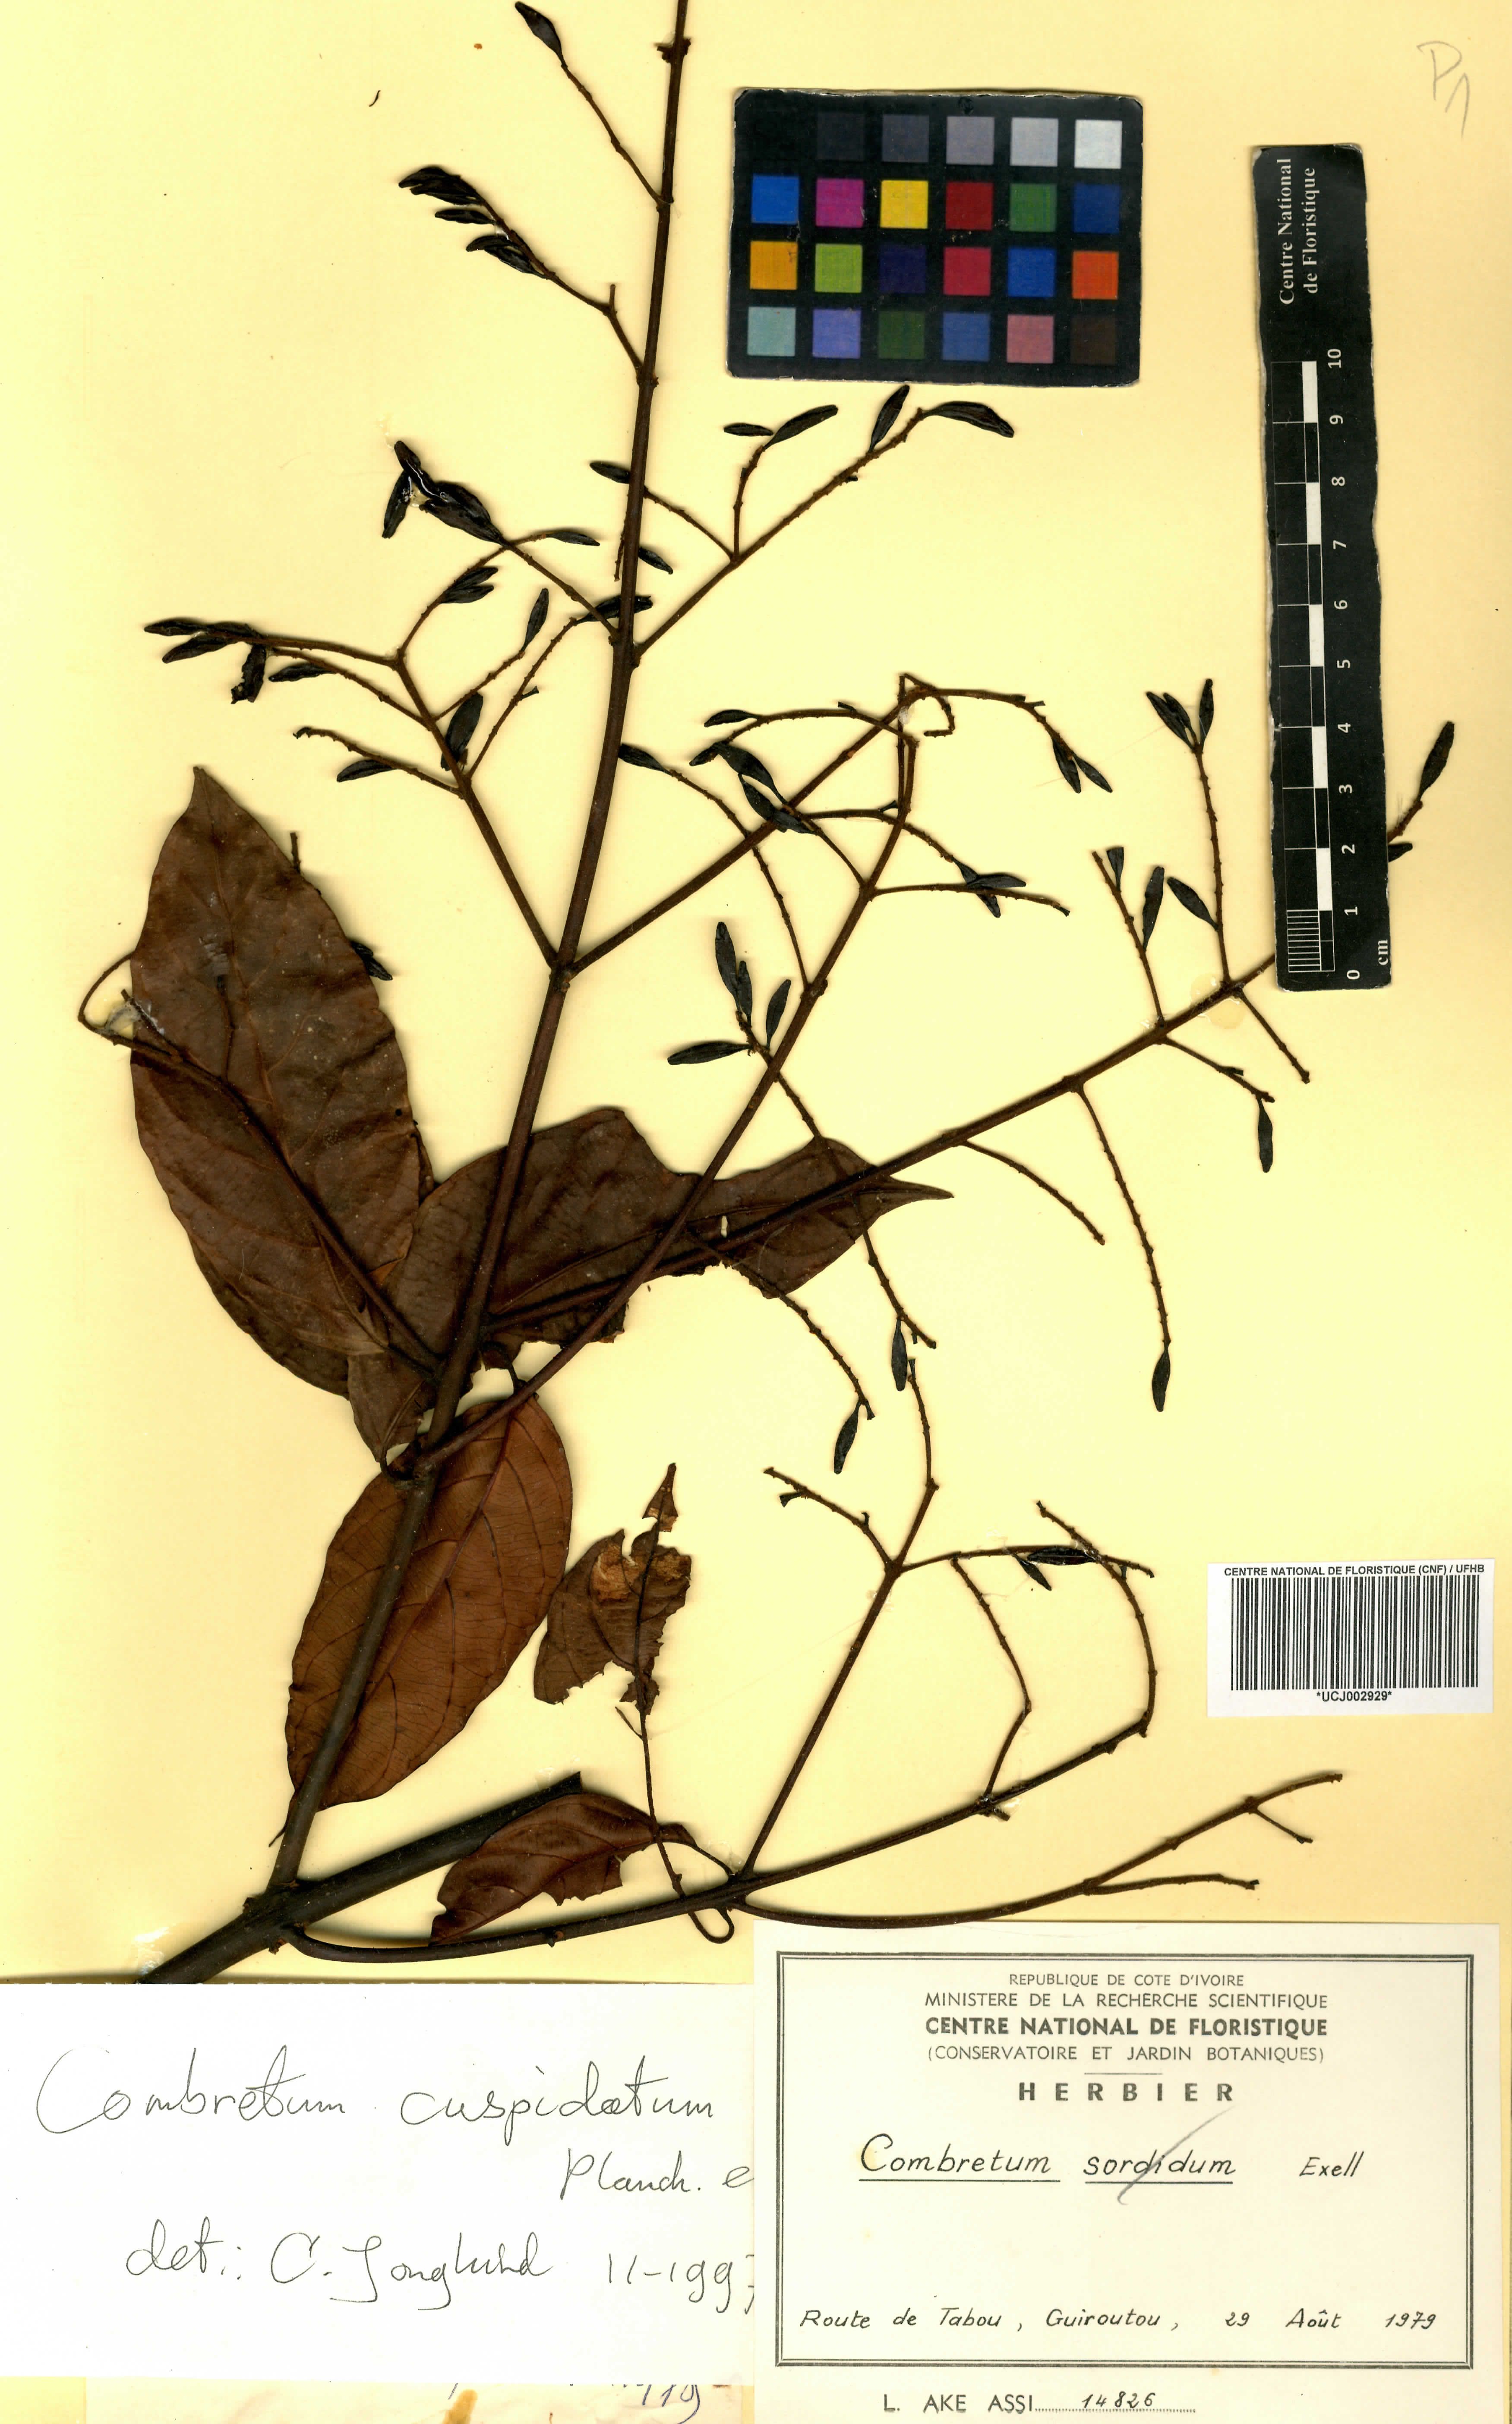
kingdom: Plantae
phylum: Tracheophyta
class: Magnoliopsida
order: Myrtales
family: Combretaceae
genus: Combretum
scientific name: Combretum cuspidatum
